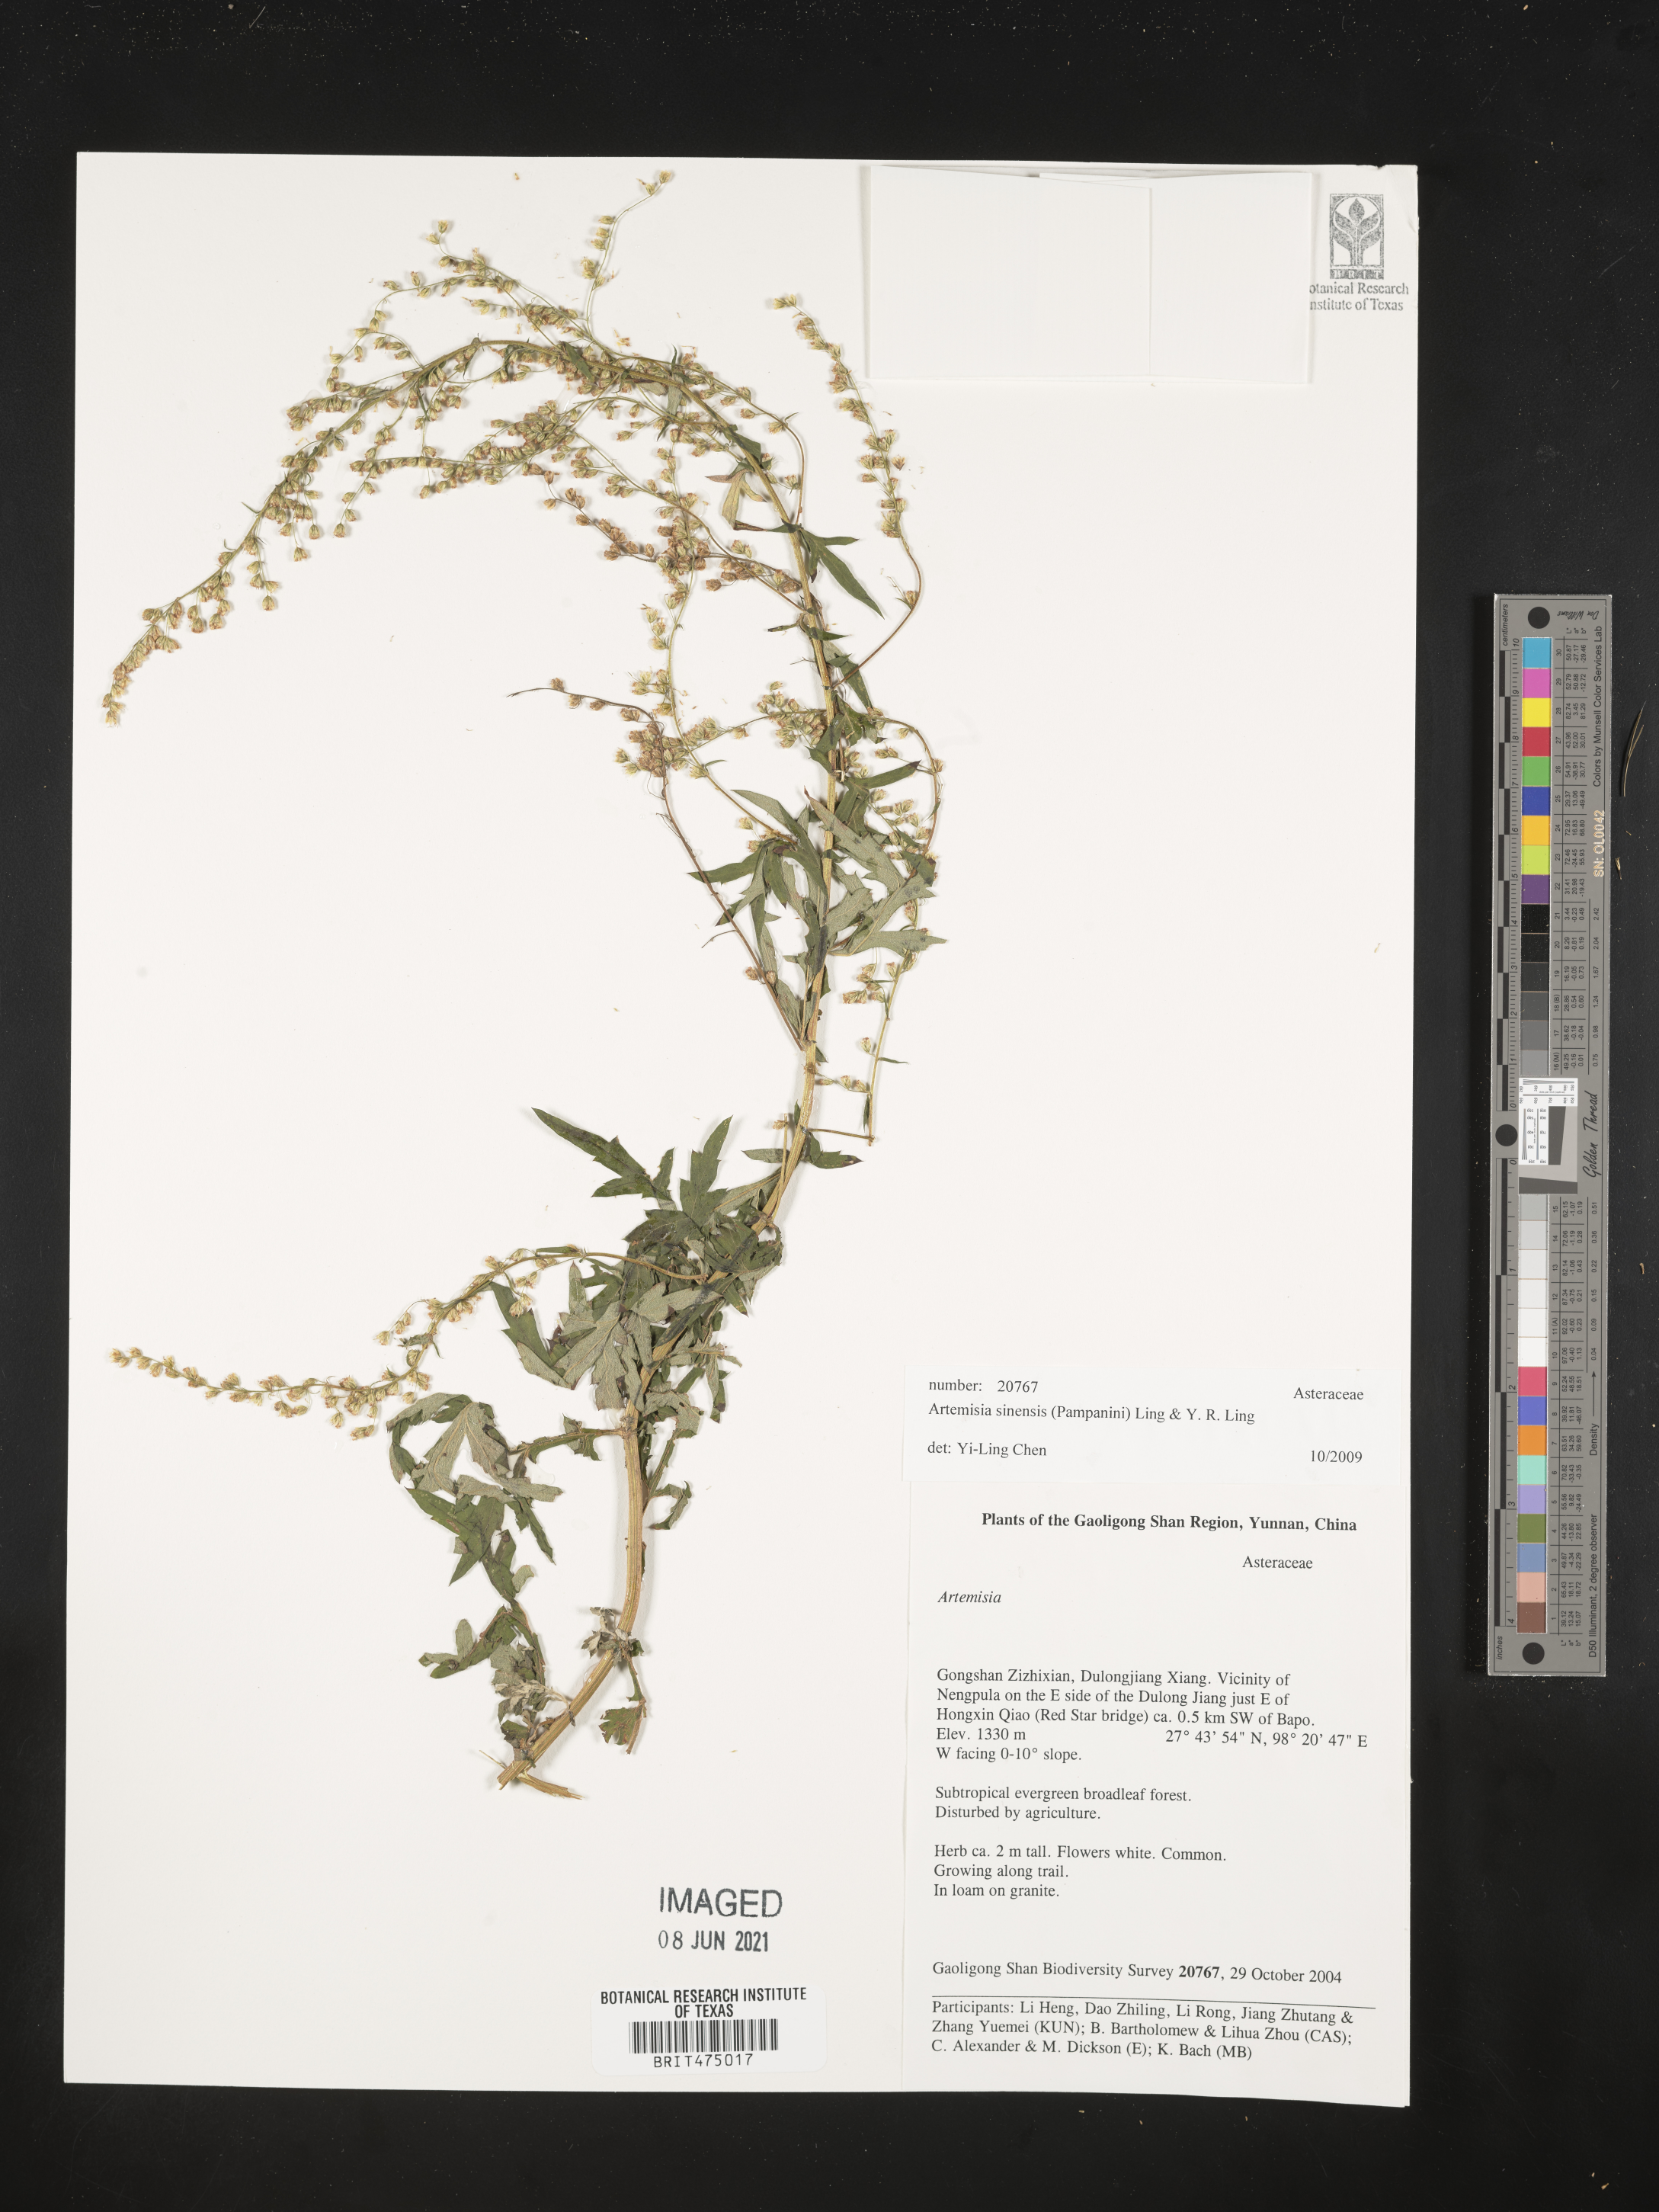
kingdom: Plantae
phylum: Tracheophyta
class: Magnoliopsida
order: Asterales
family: Asteraceae
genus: Artemisia
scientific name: Artemisia sinensis
